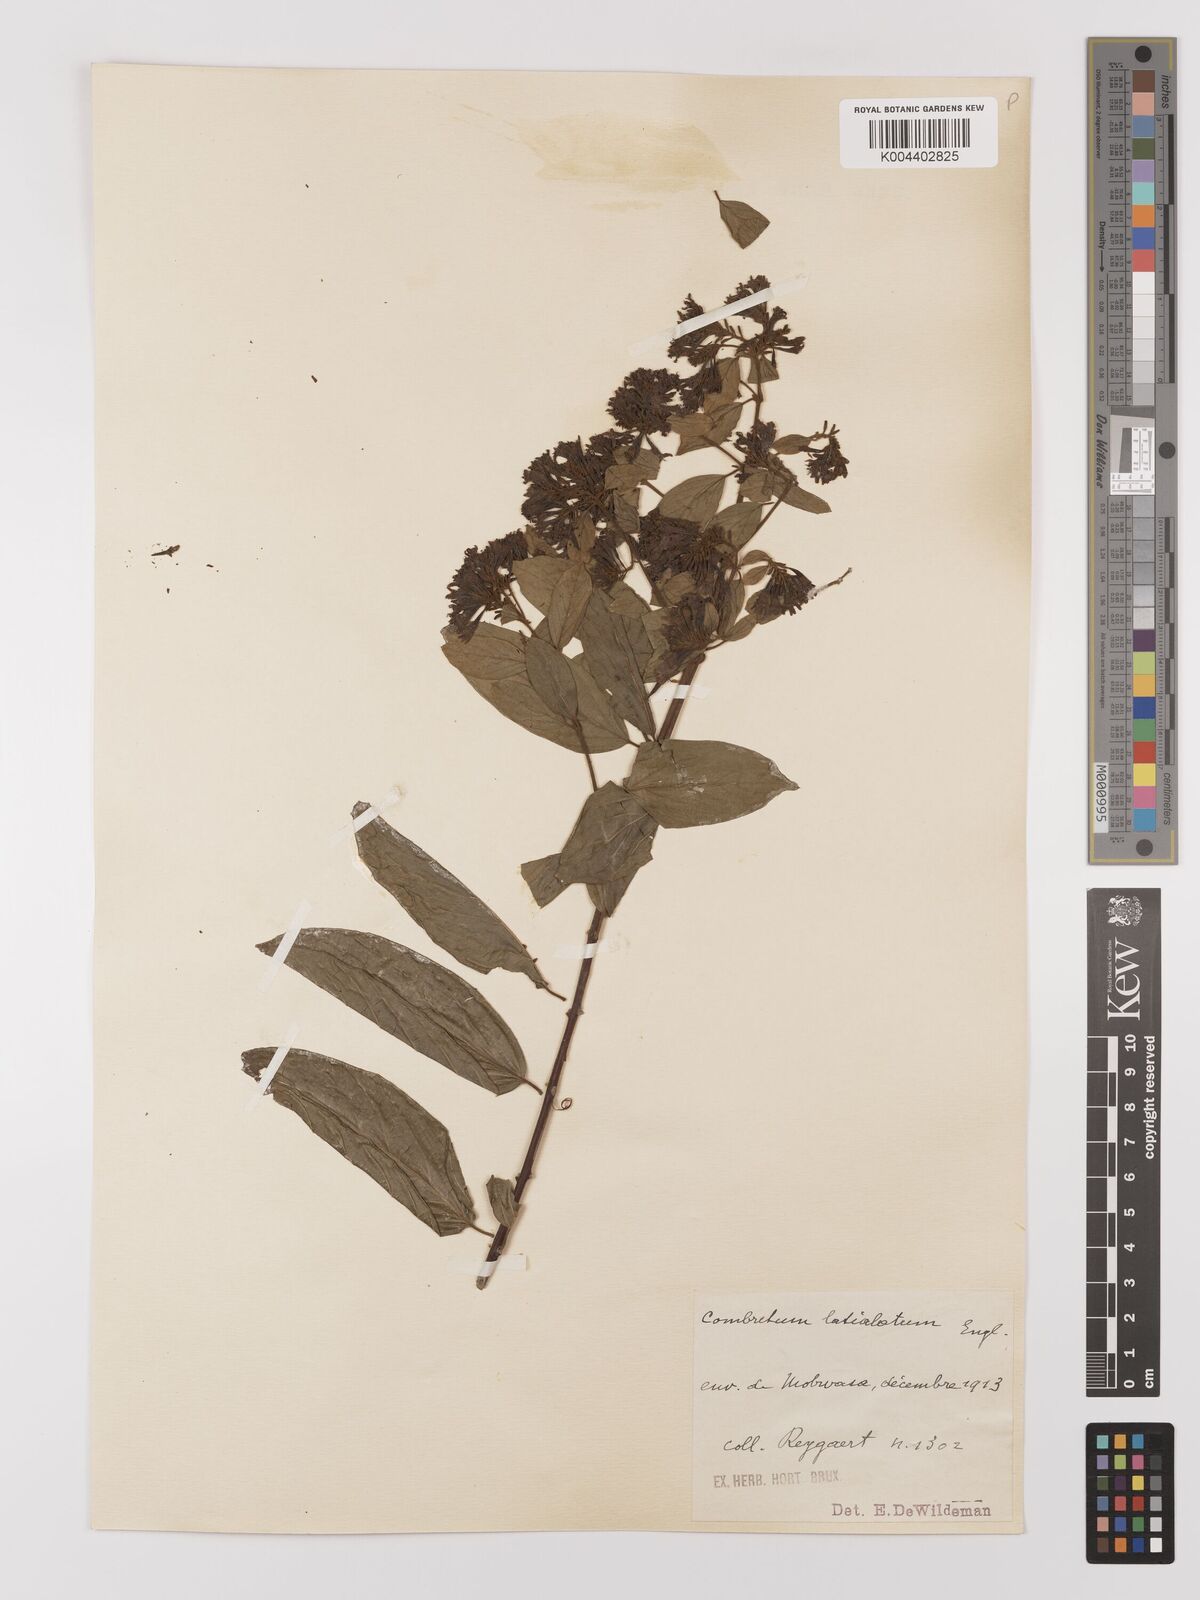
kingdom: Plantae
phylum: Tracheophyta
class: Magnoliopsida
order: Myrtales
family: Combretaceae
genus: Combretum
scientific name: Combretum latialatum
